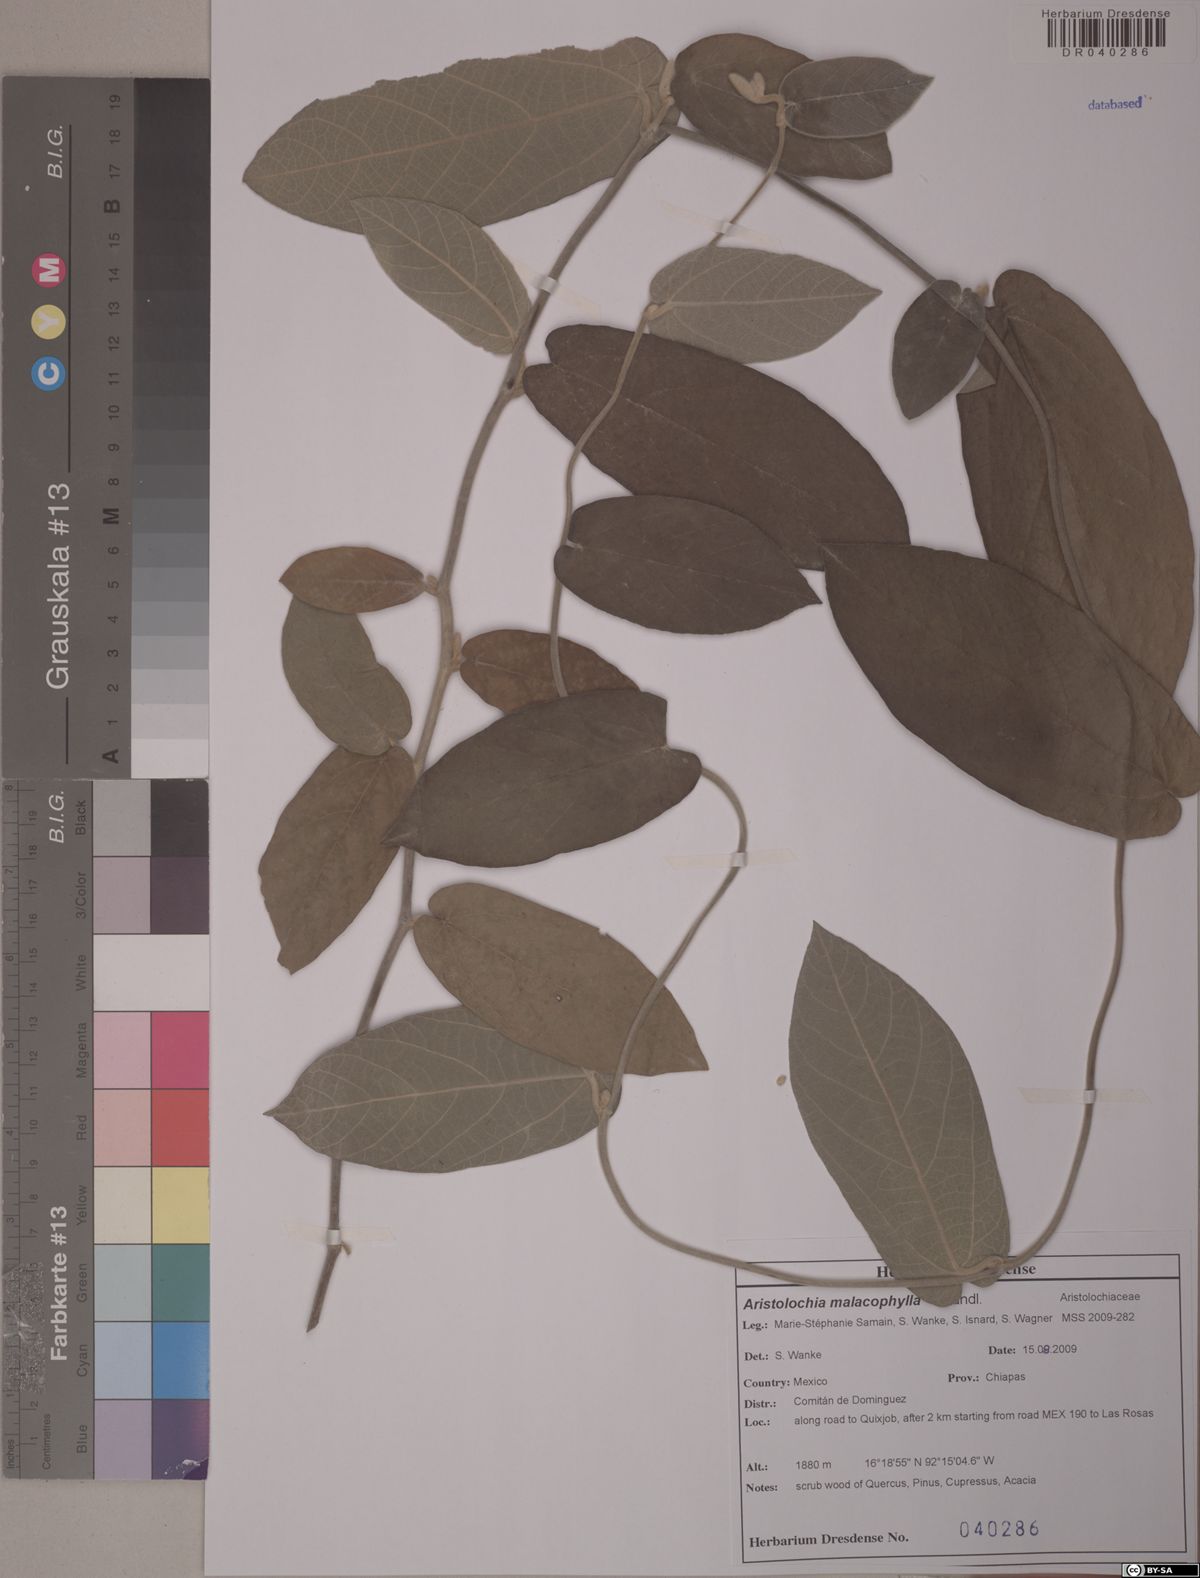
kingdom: Plantae
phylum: Tracheophyta
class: Magnoliopsida
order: Piperales
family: Aristolochiaceae
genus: Isotrema
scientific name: Isotrema malacophyllum
